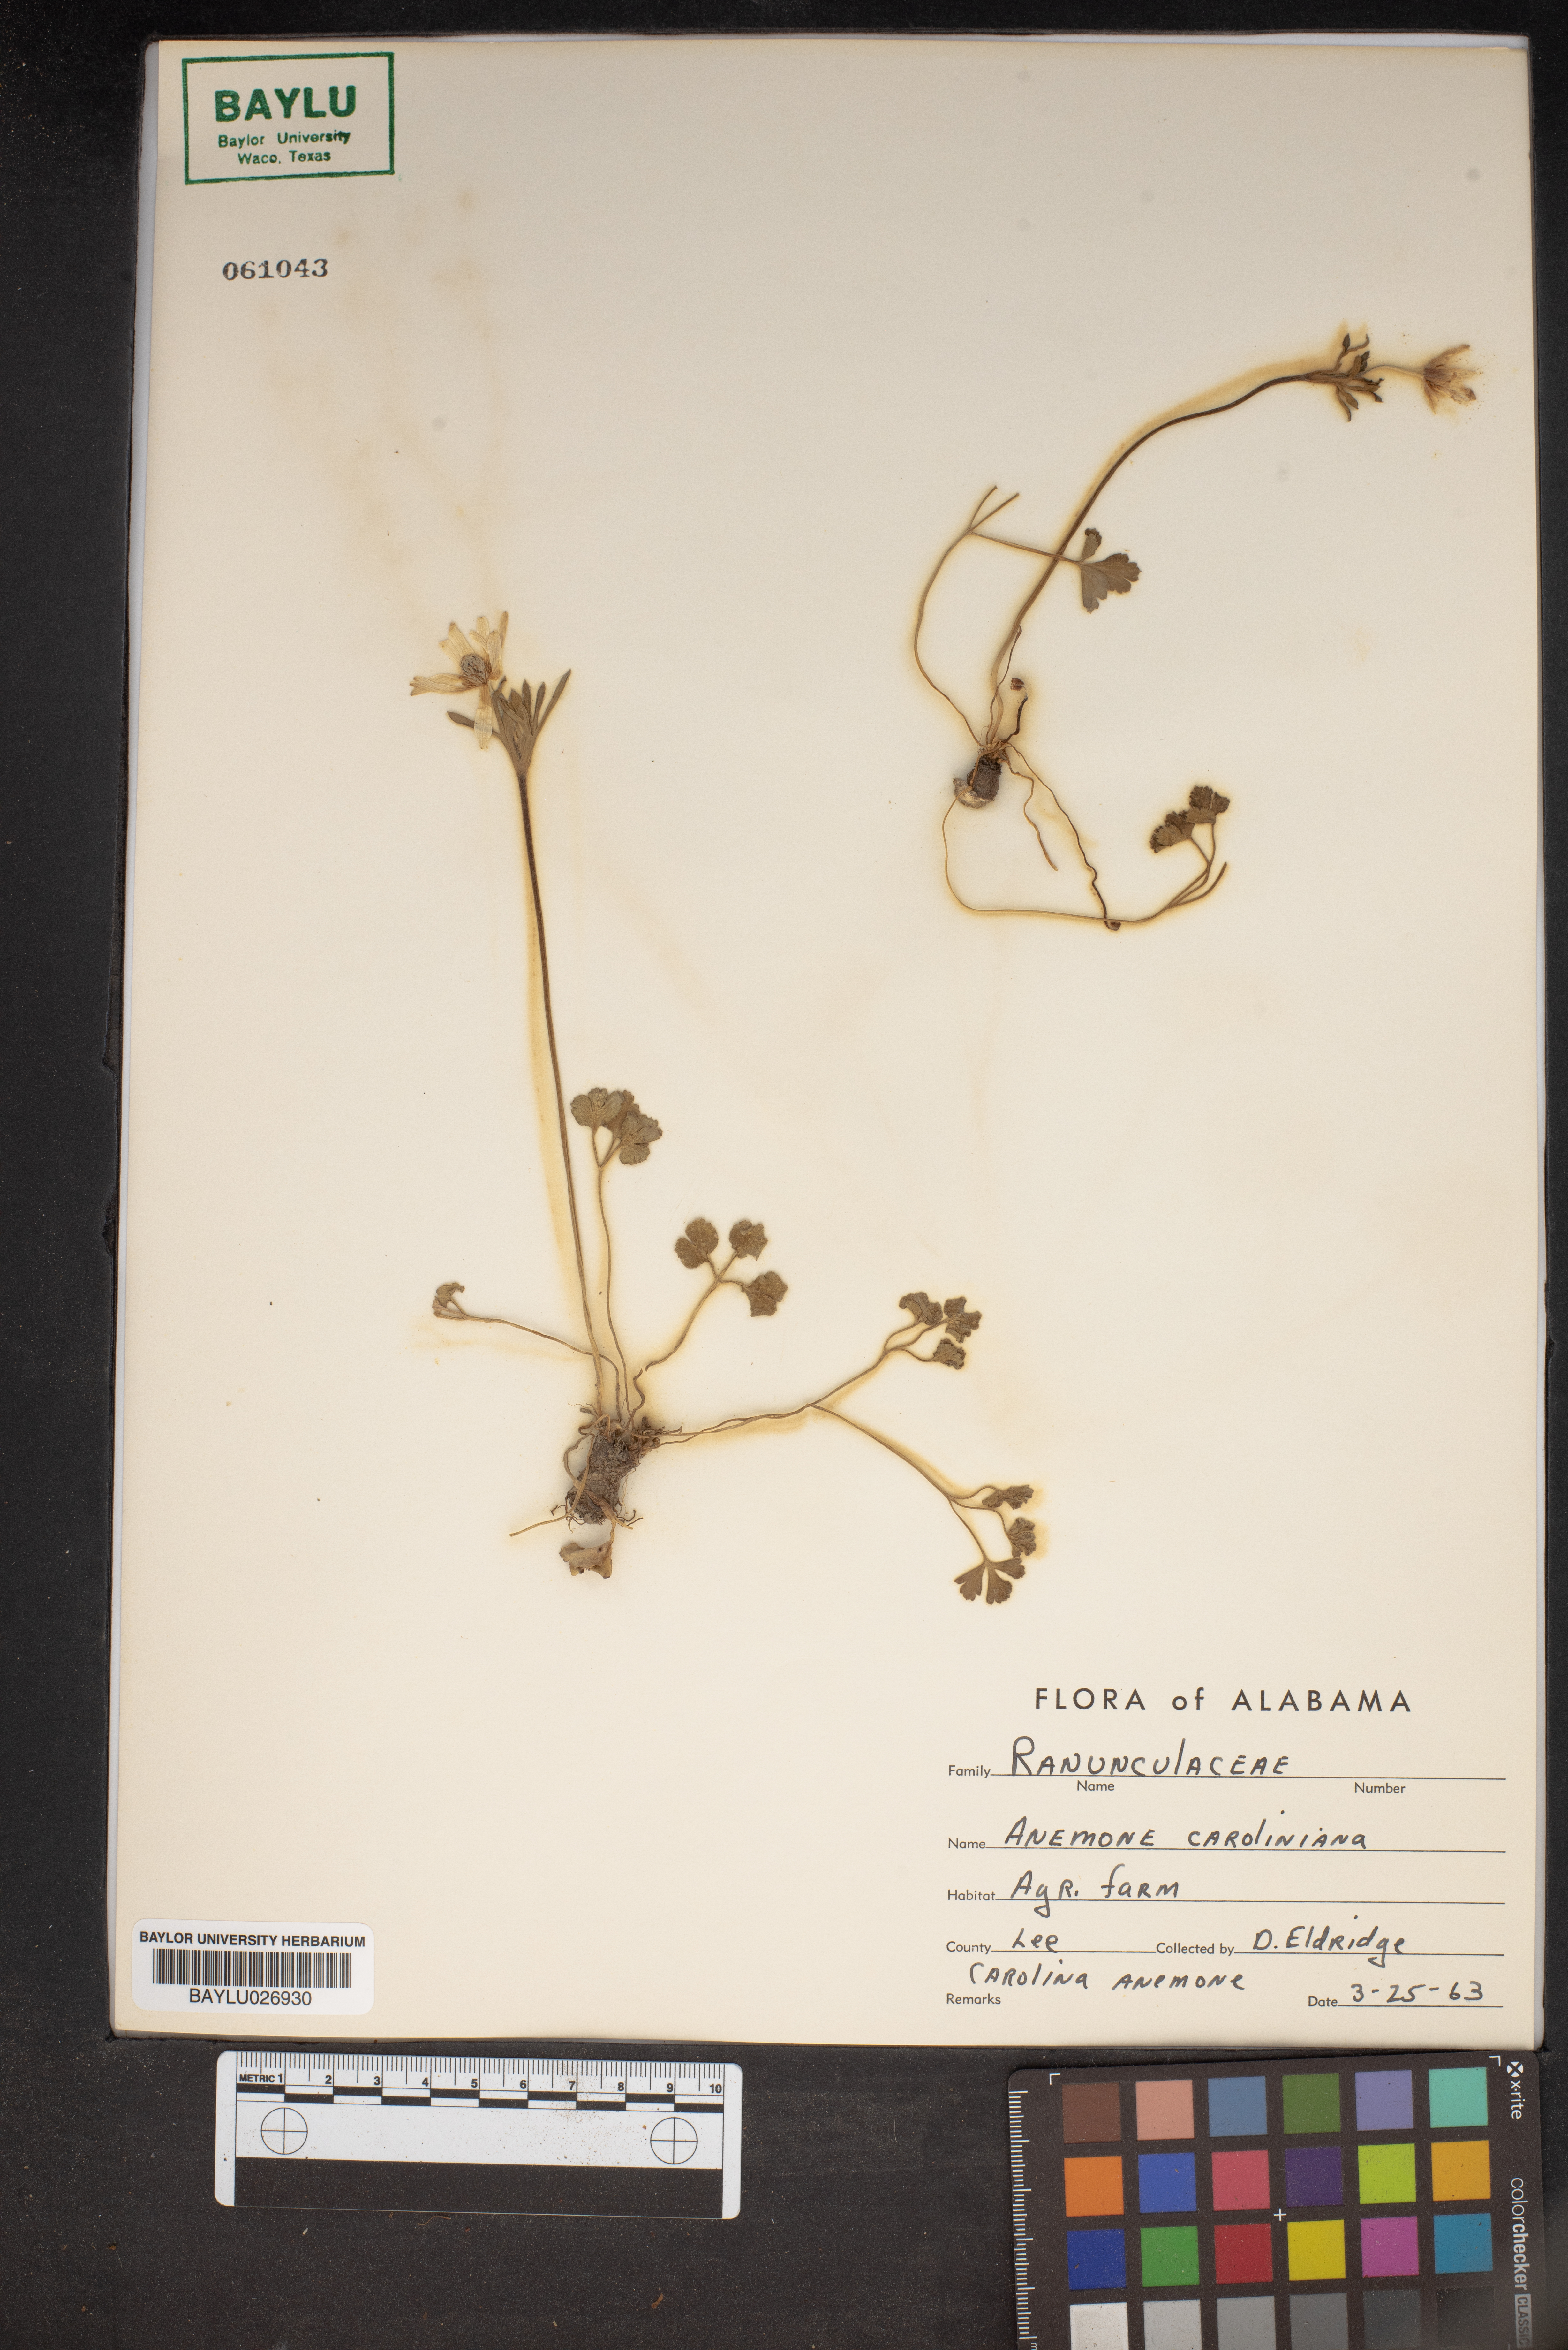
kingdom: Plantae
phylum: Tracheophyta
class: Magnoliopsida
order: Ranunculales
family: Ranunculaceae
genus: Anemone
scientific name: Anemone caroliniana
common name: Carolina anemone
